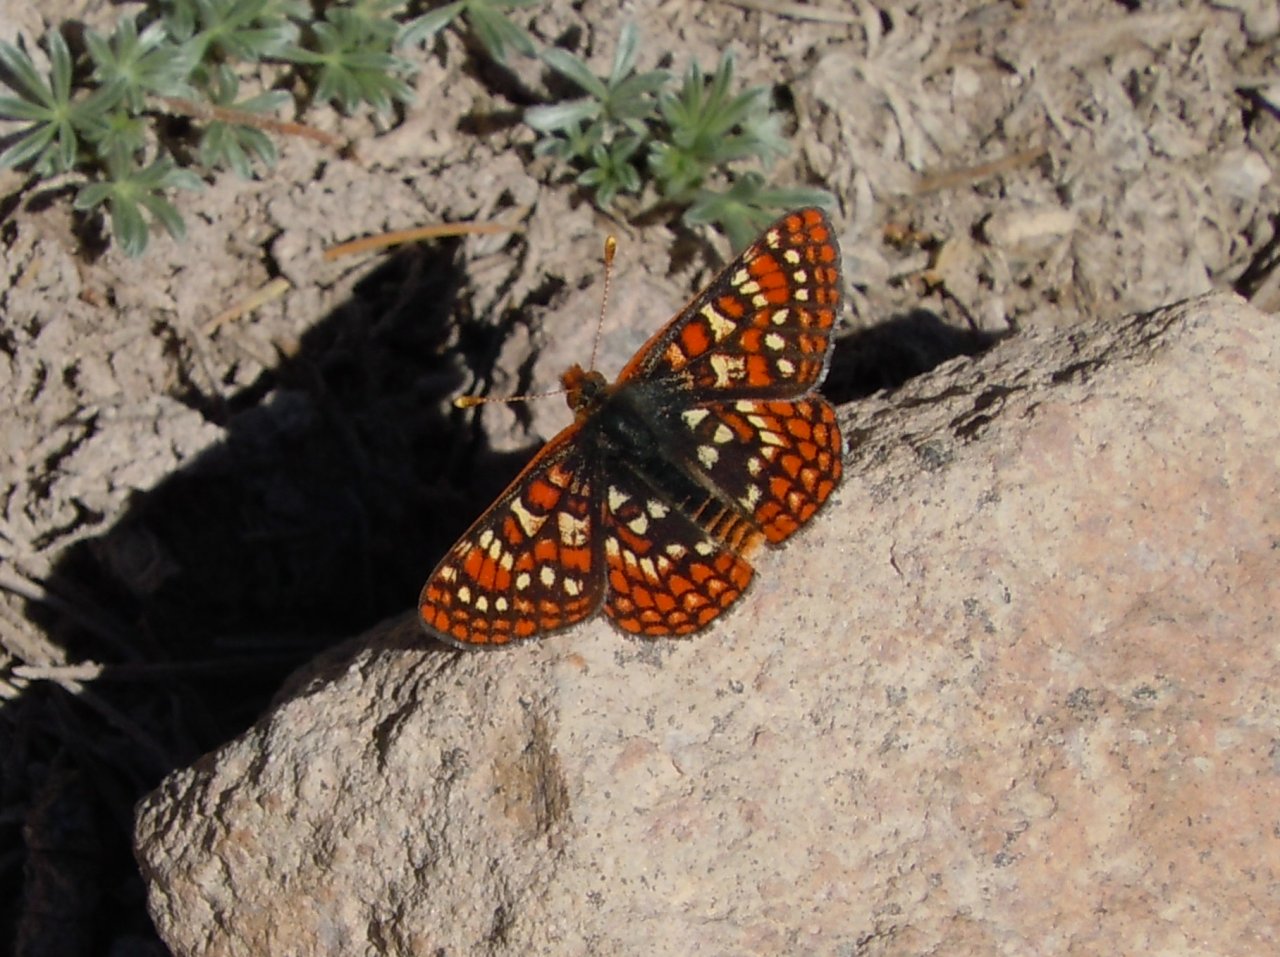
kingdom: Animalia
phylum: Arthropoda
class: Insecta
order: Lepidoptera
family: Nymphalidae
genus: Occidryas
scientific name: Occidryas editha
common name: Edith's Checkerspot
